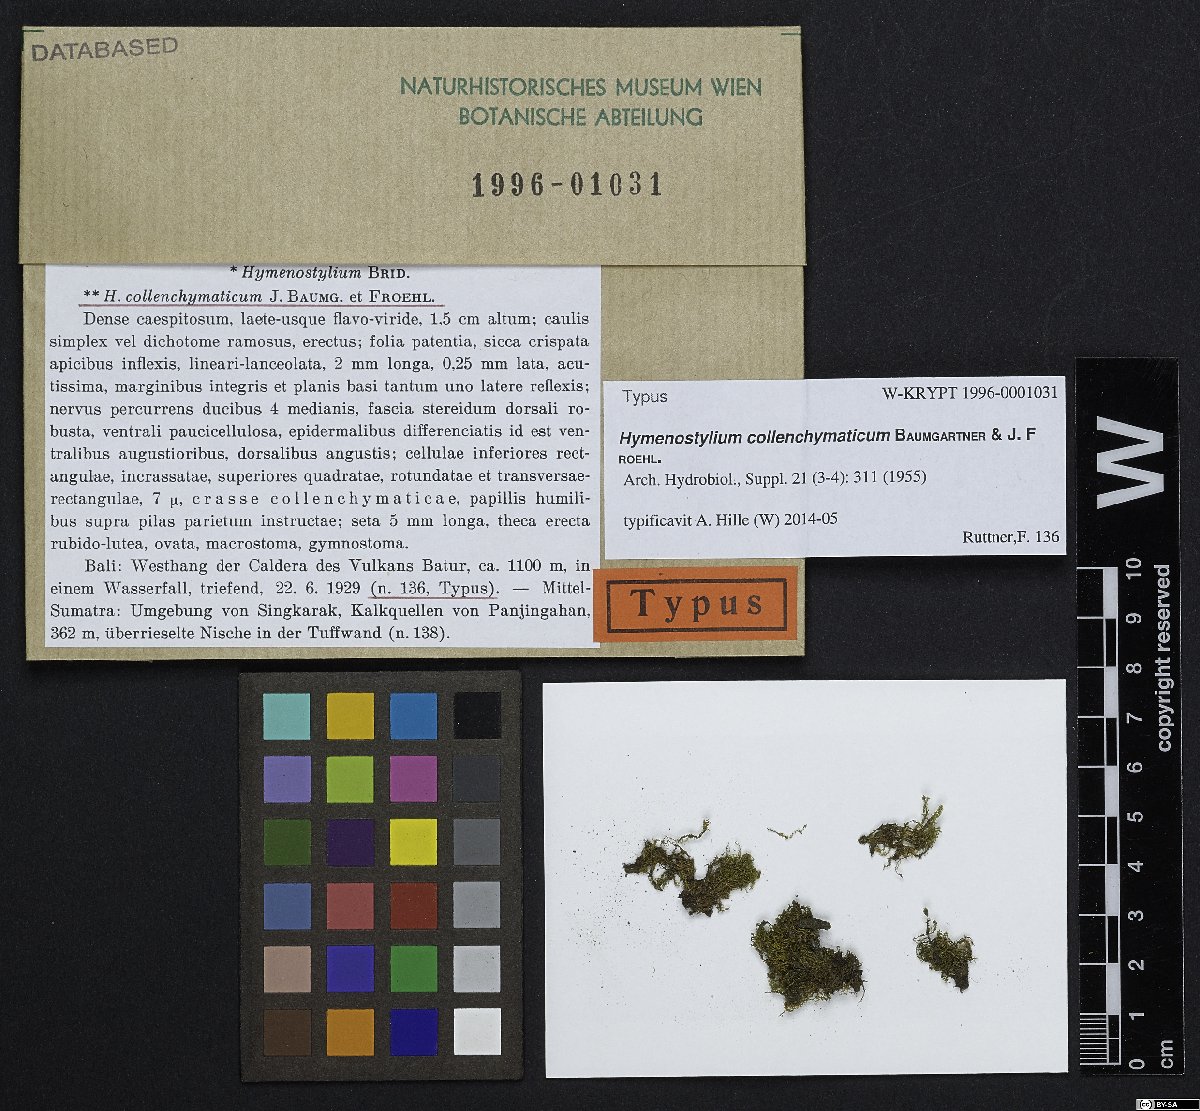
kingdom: Plantae
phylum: Bryophyta
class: Bryopsida
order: Pottiales
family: Pottiaceae
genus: Hymenostylium
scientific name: Hymenostylium recurvirostrum
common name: Hook-beak tufa-moss
